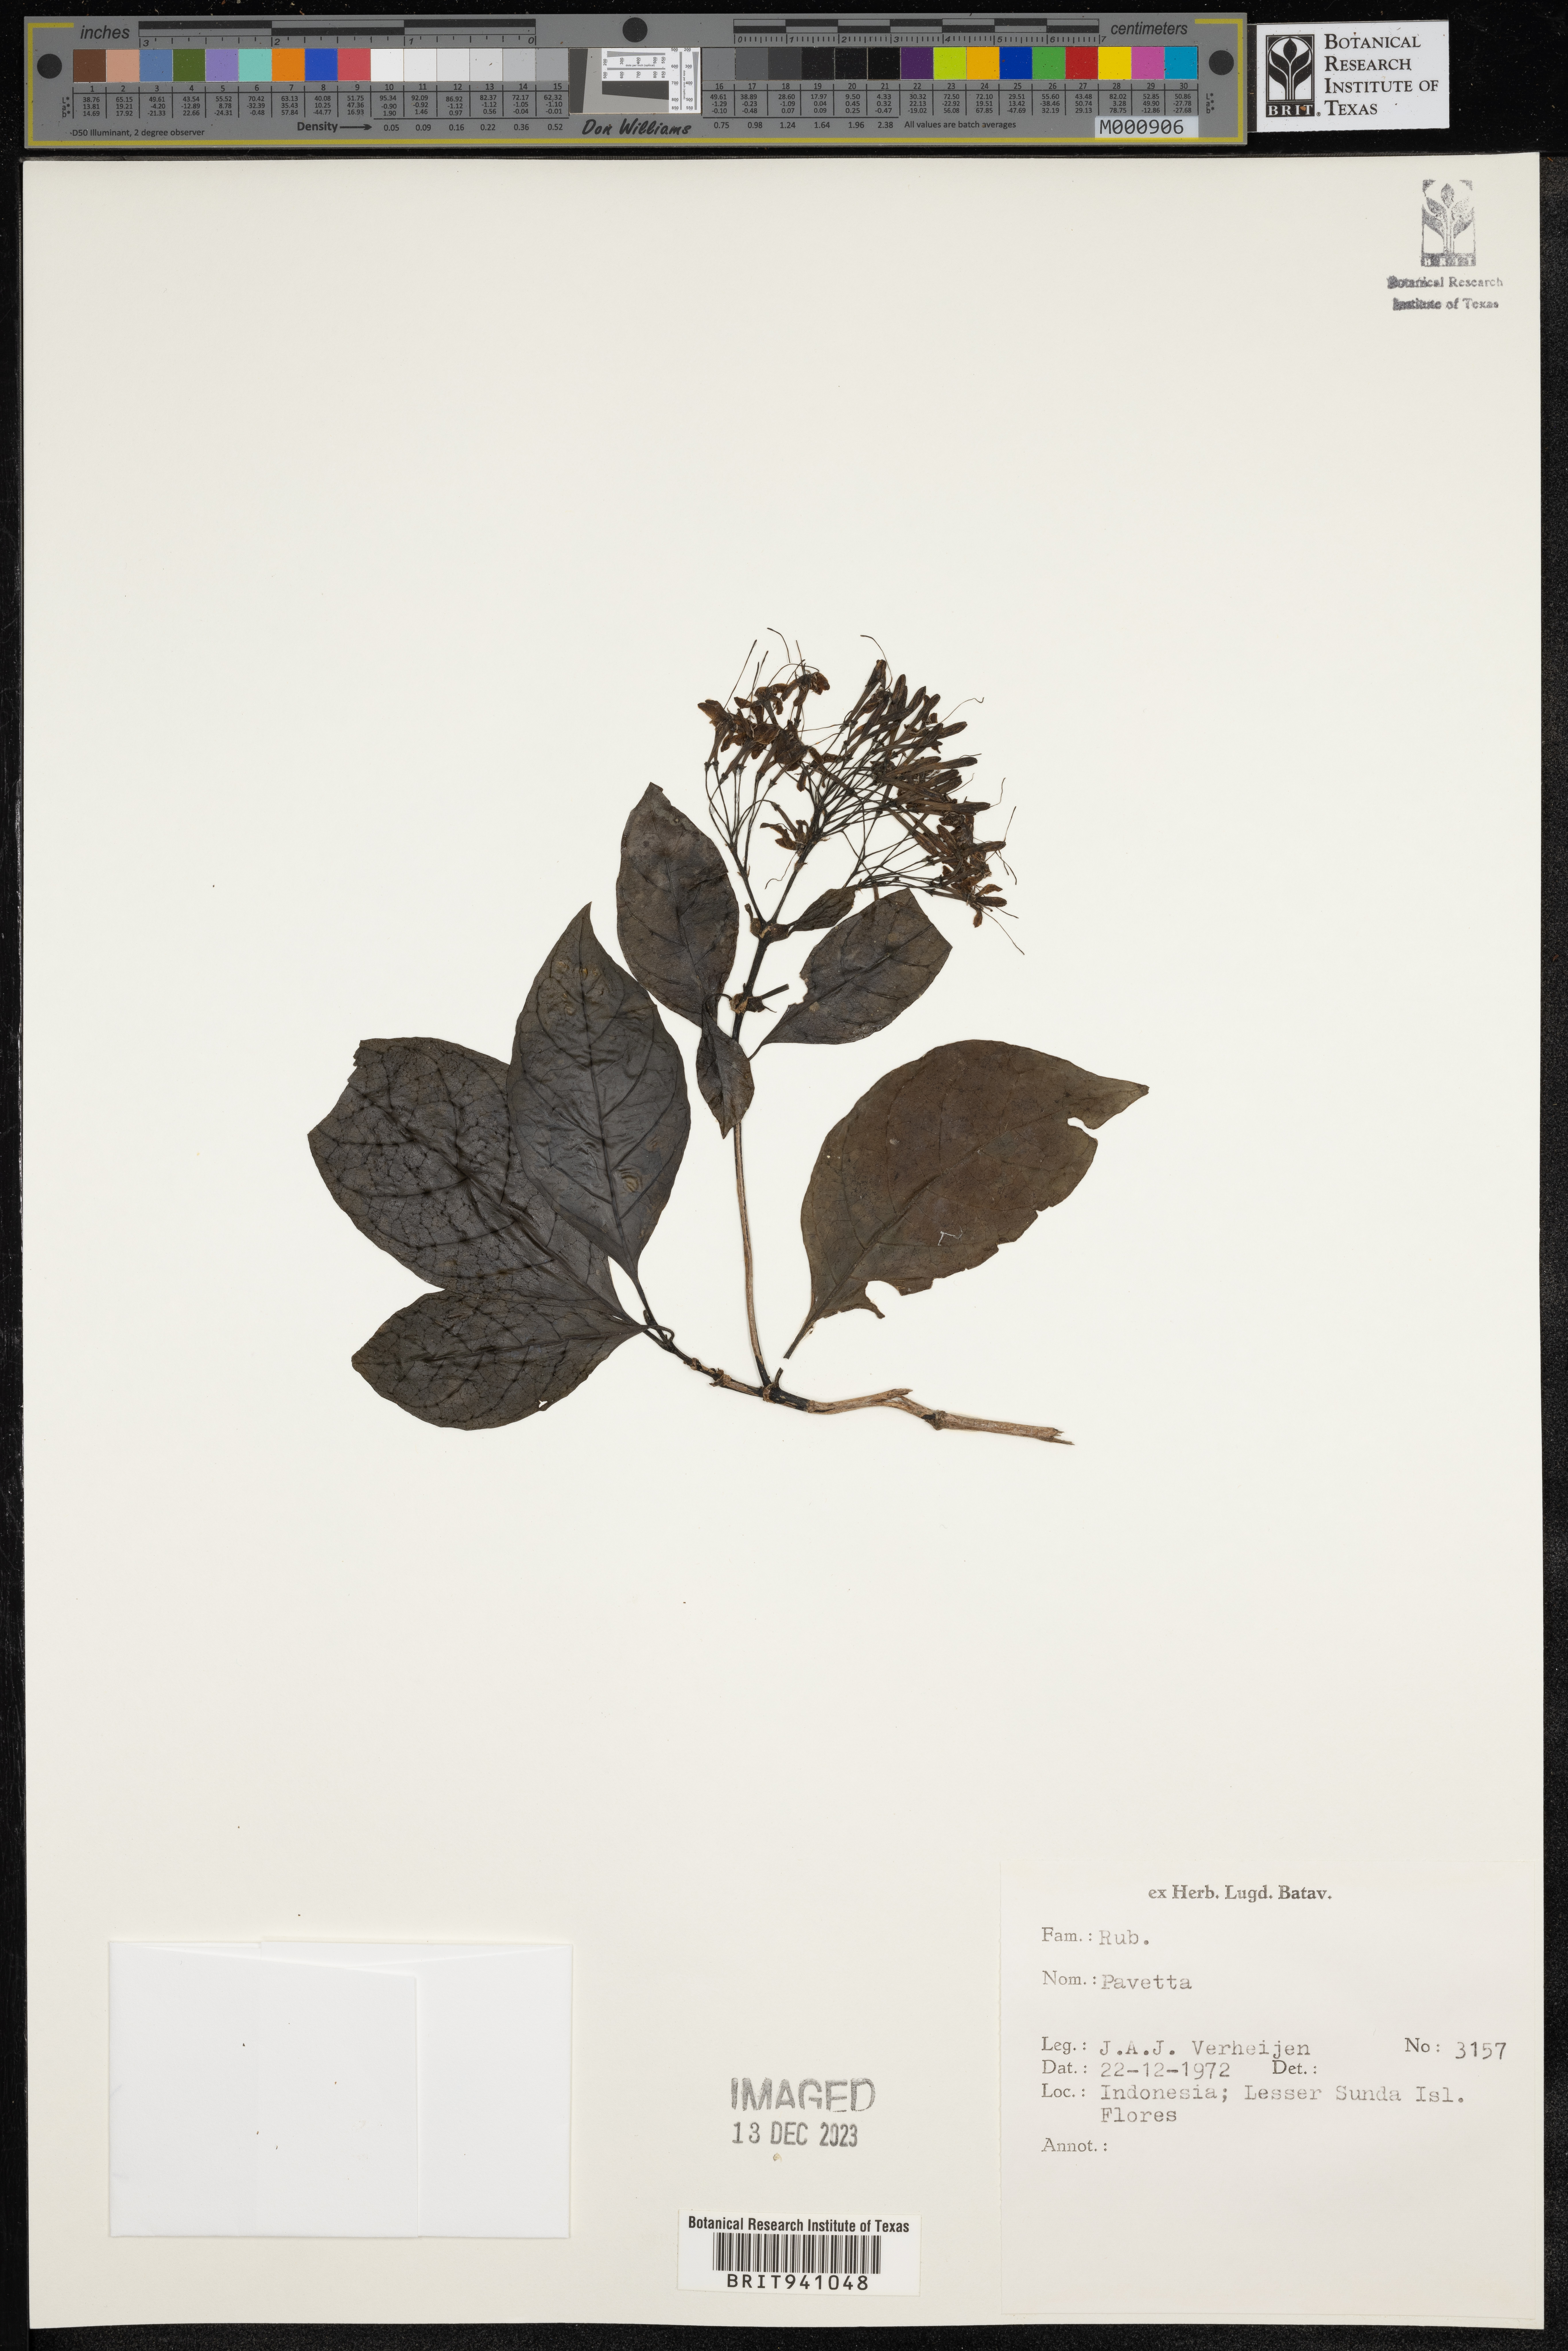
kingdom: Plantae
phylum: Tracheophyta
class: Magnoliopsida
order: Gentianales
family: Rubiaceae
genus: Pavetta
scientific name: Pavetta
